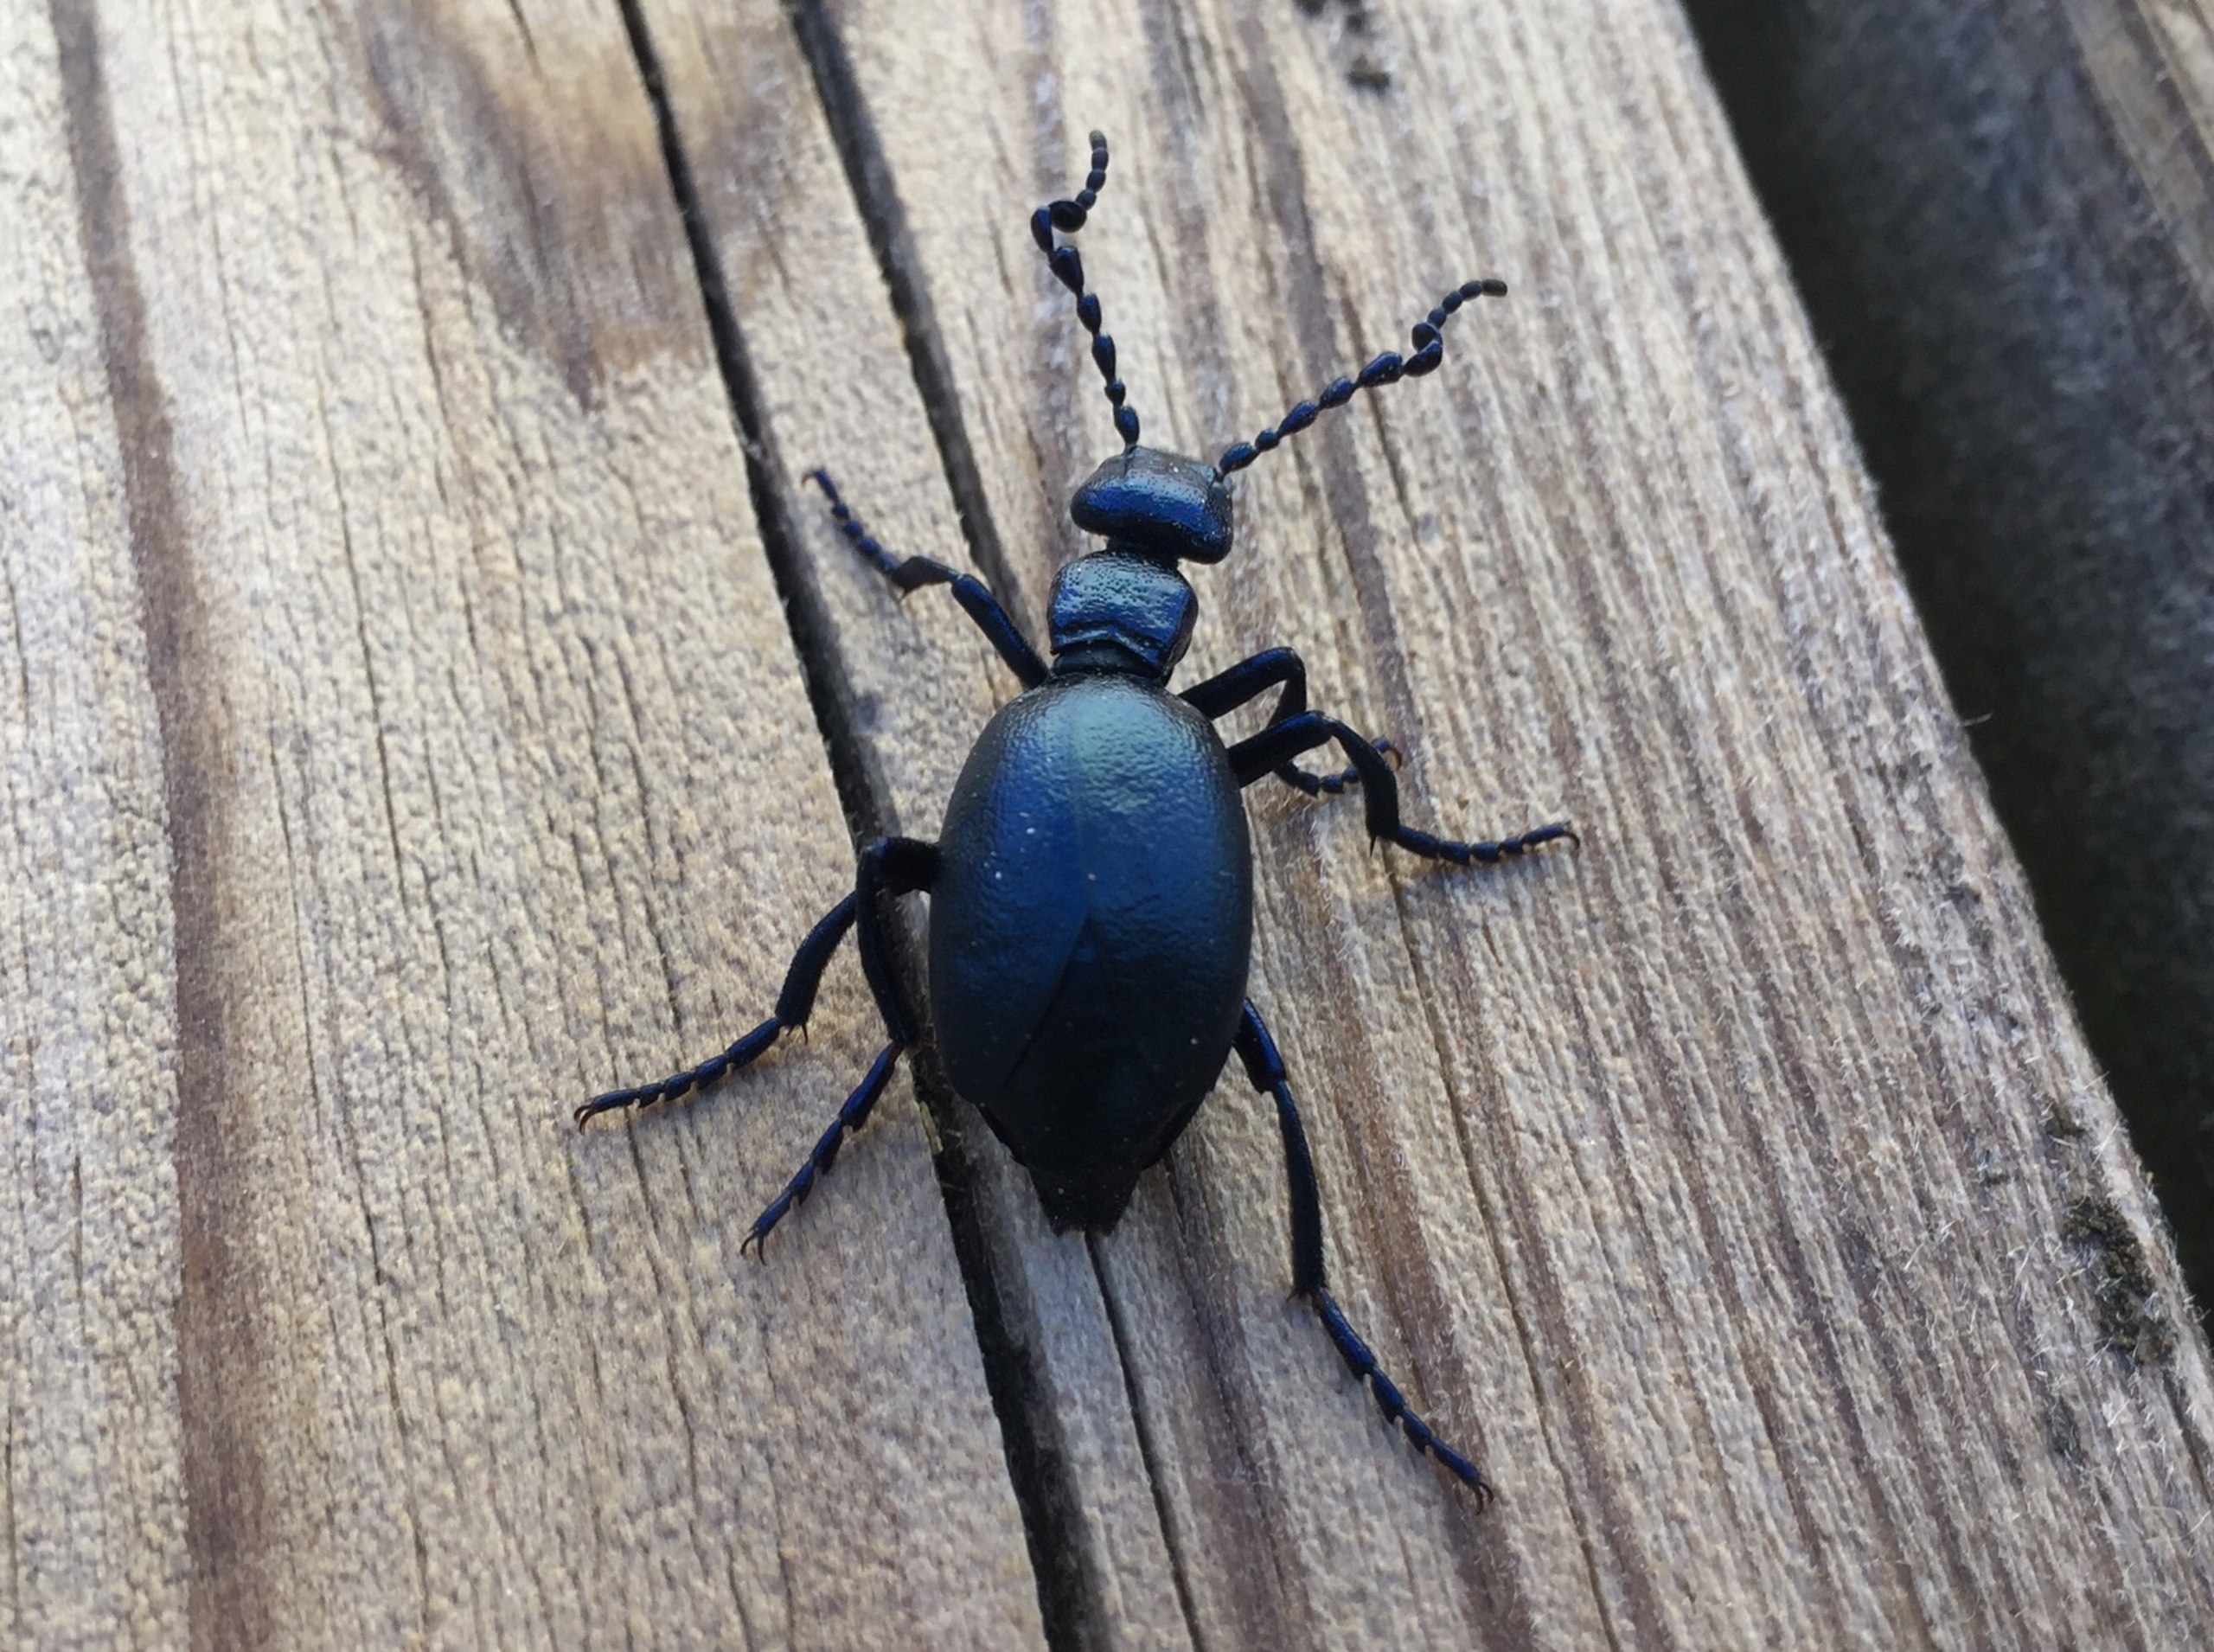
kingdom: Animalia
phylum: Arthropoda
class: Insecta
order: Coleoptera
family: Meloidae
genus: Meloe
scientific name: Meloe violaceus
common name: Blå oliebille
